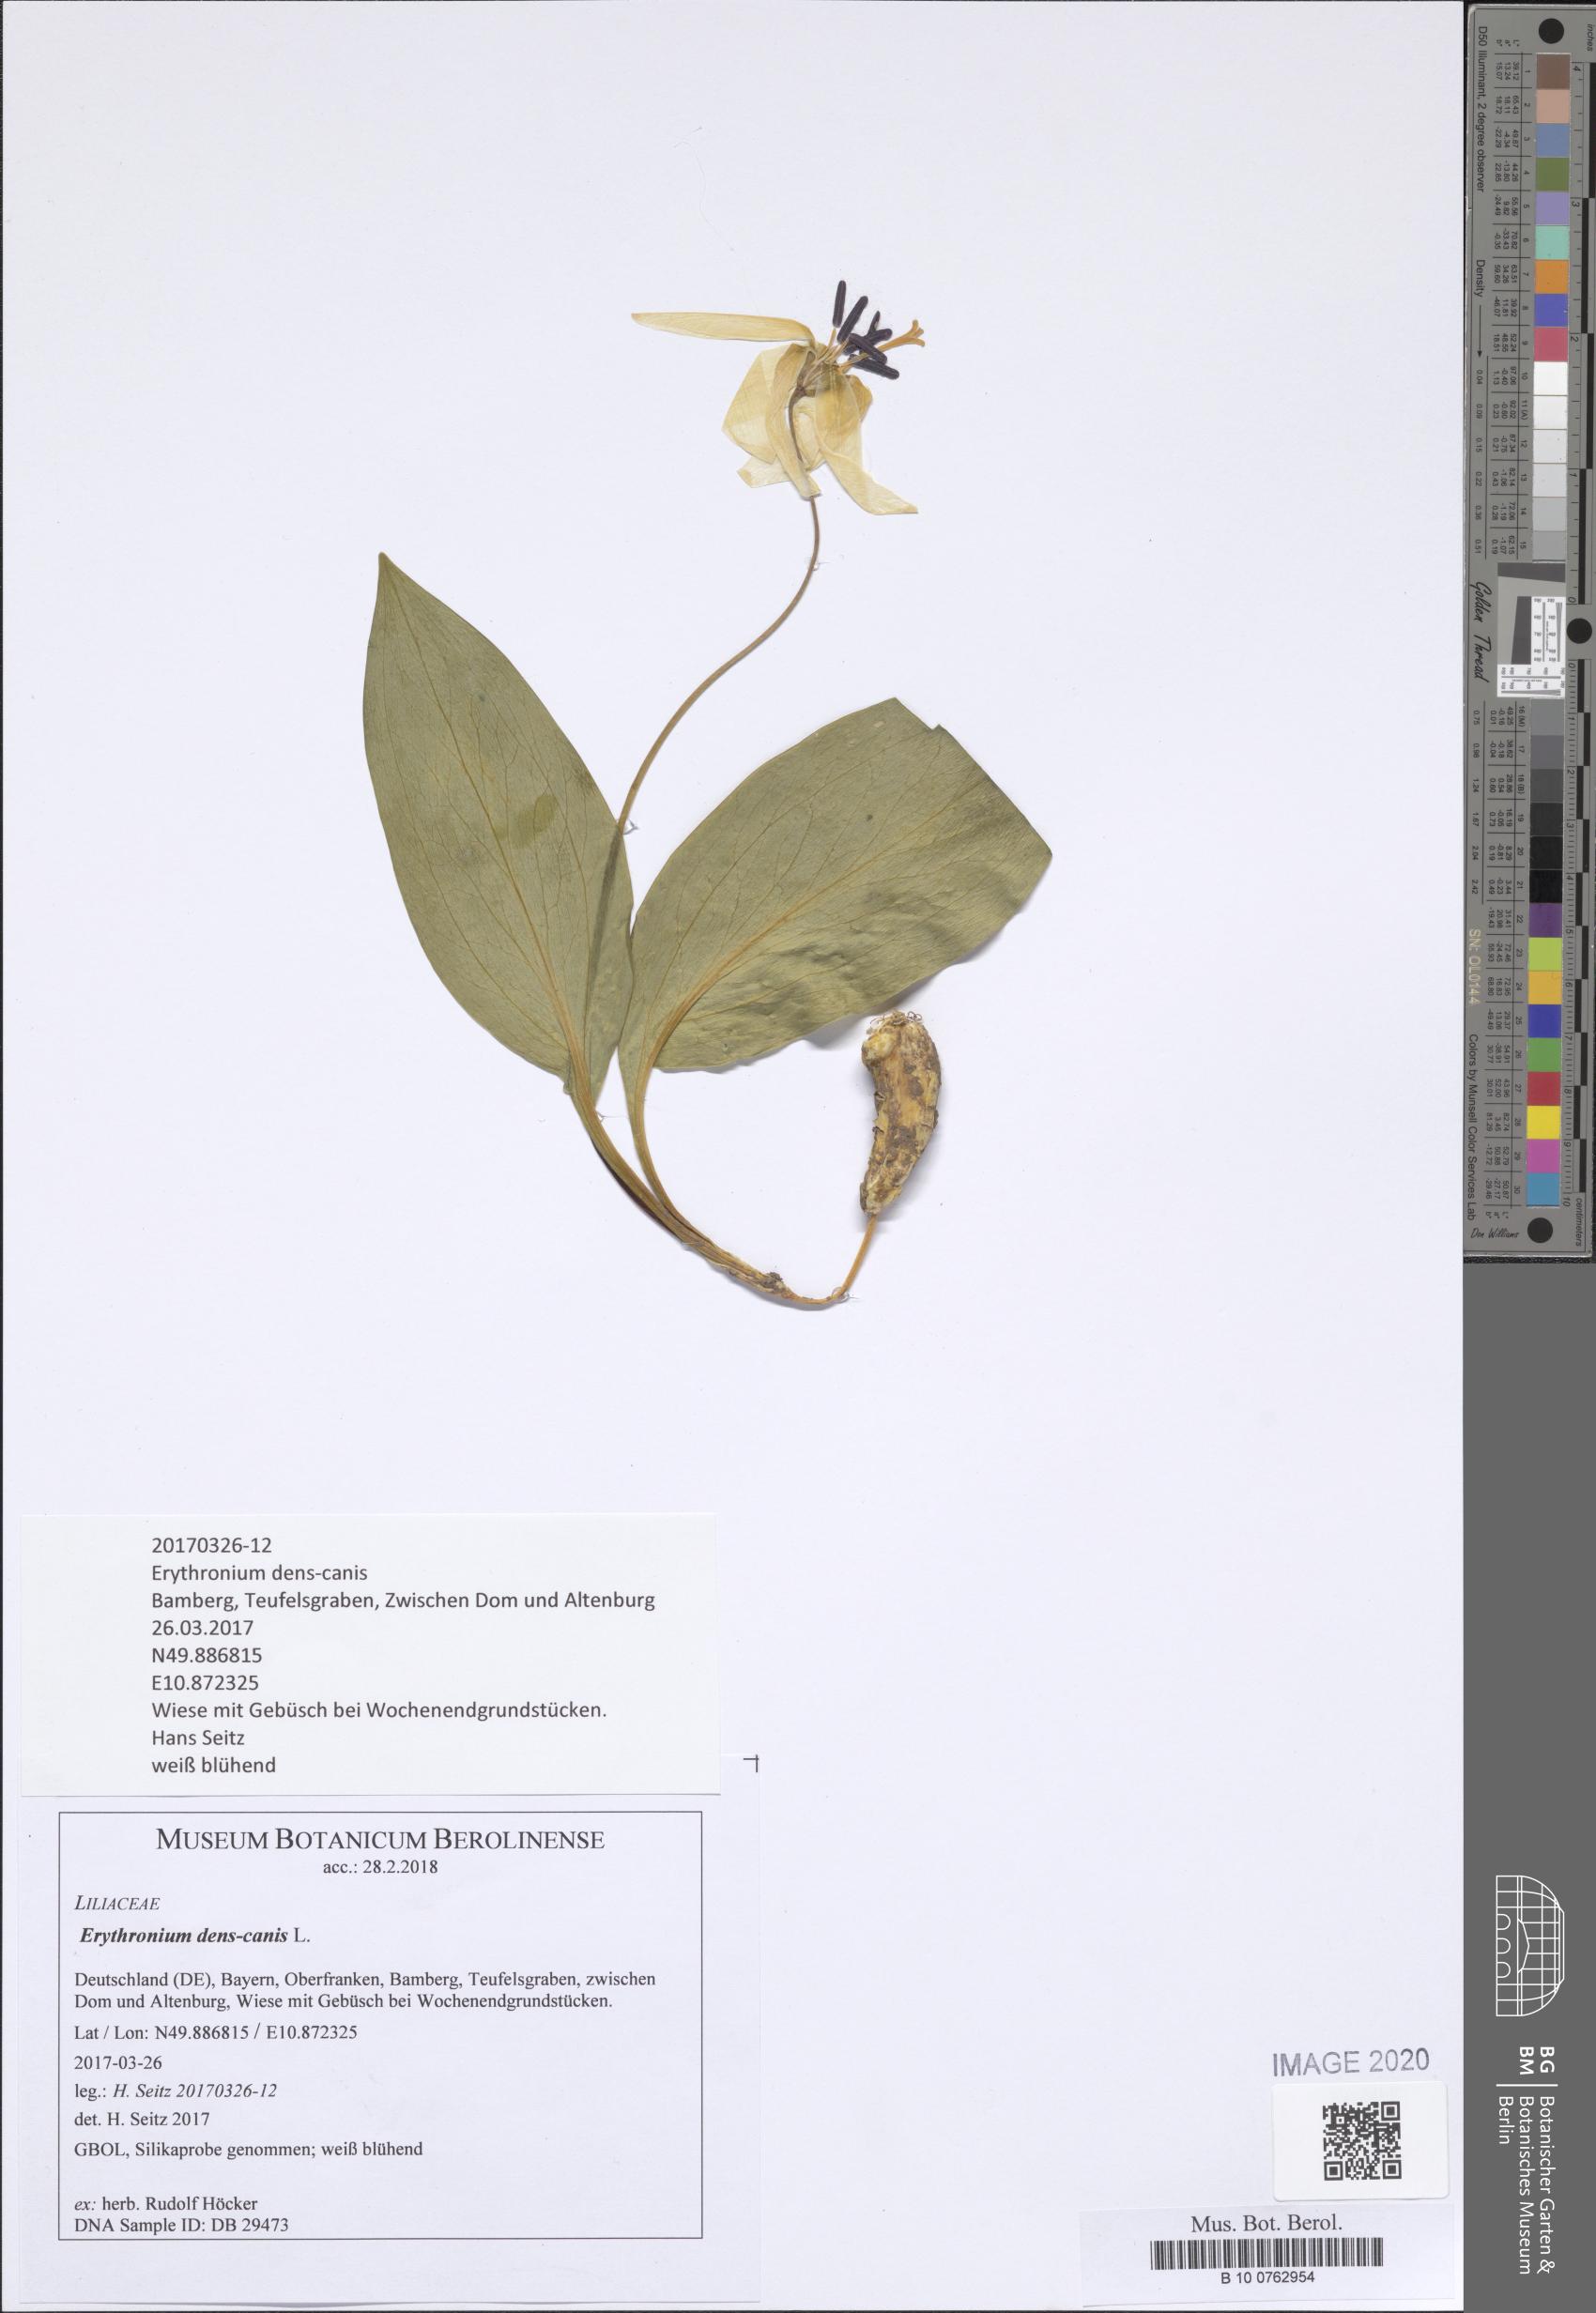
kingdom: Plantae
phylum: Tracheophyta
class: Liliopsida
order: Liliales
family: Liliaceae
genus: Erythronium
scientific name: Erythronium dens-canis
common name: Dog's-tooth-violet
